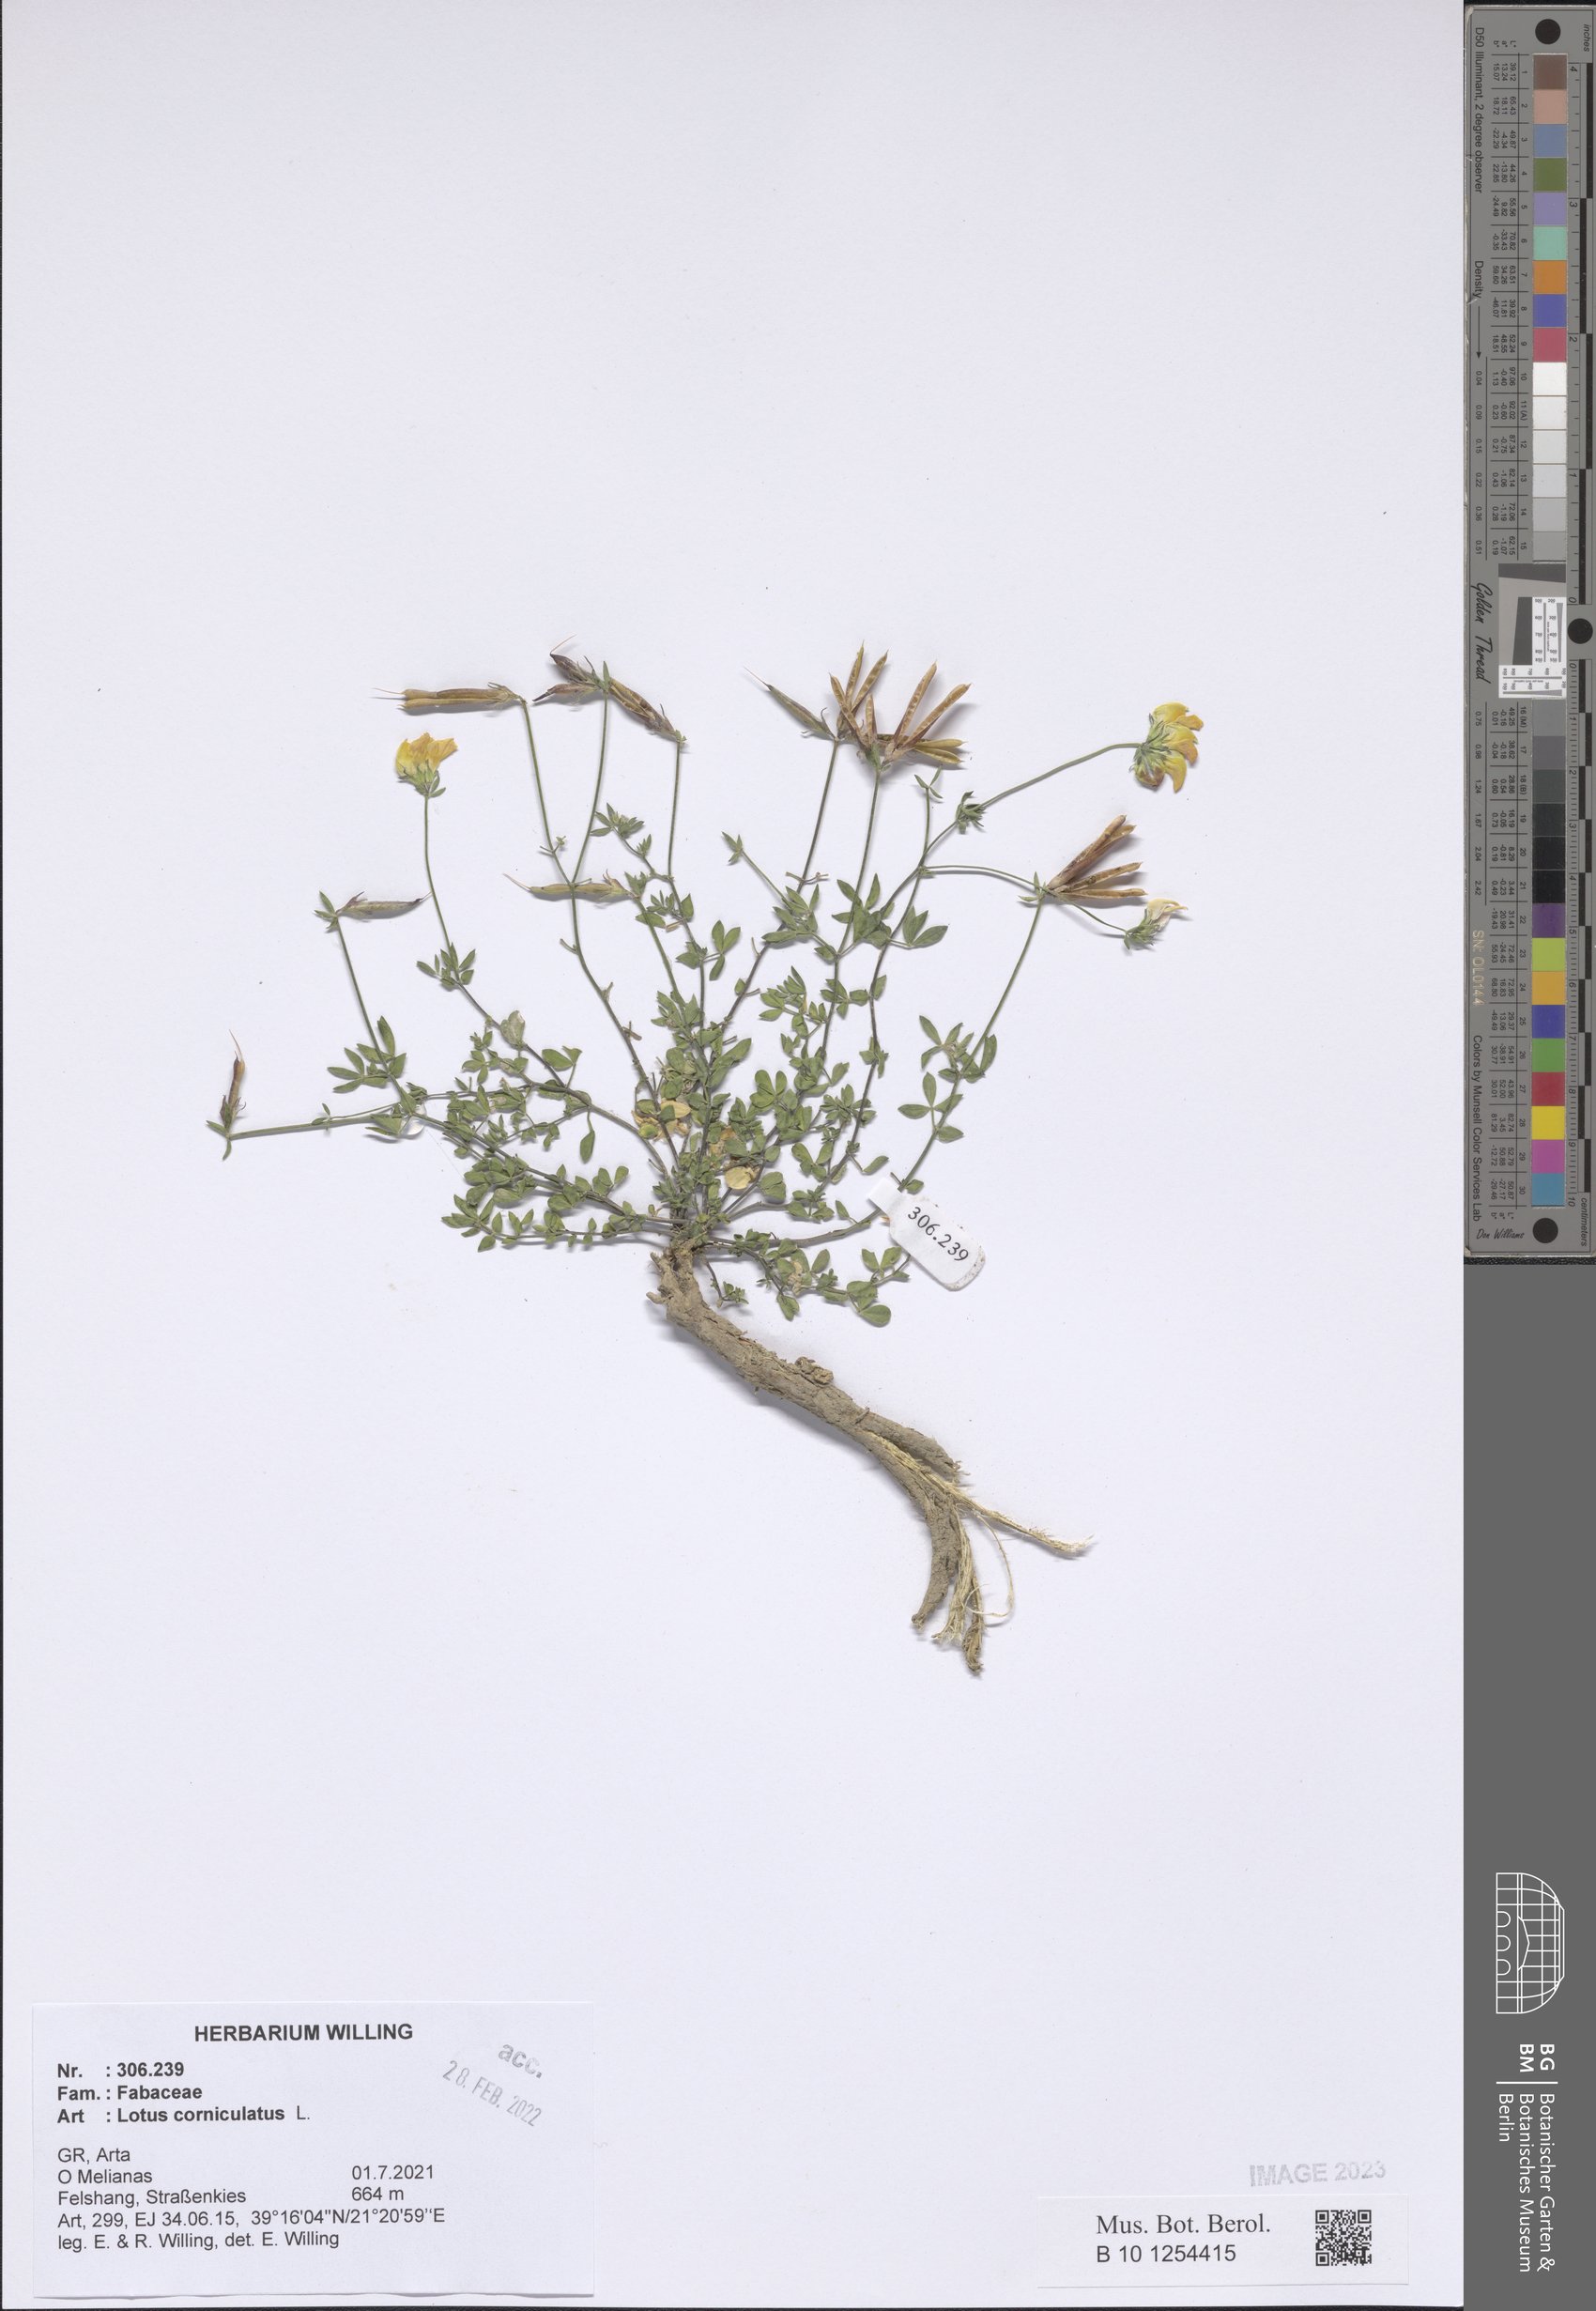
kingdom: Plantae
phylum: Tracheophyta
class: Magnoliopsida
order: Fabales
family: Fabaceae
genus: Lotus
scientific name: Lotus corniculatus
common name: Common bird's-foot-trefoil
